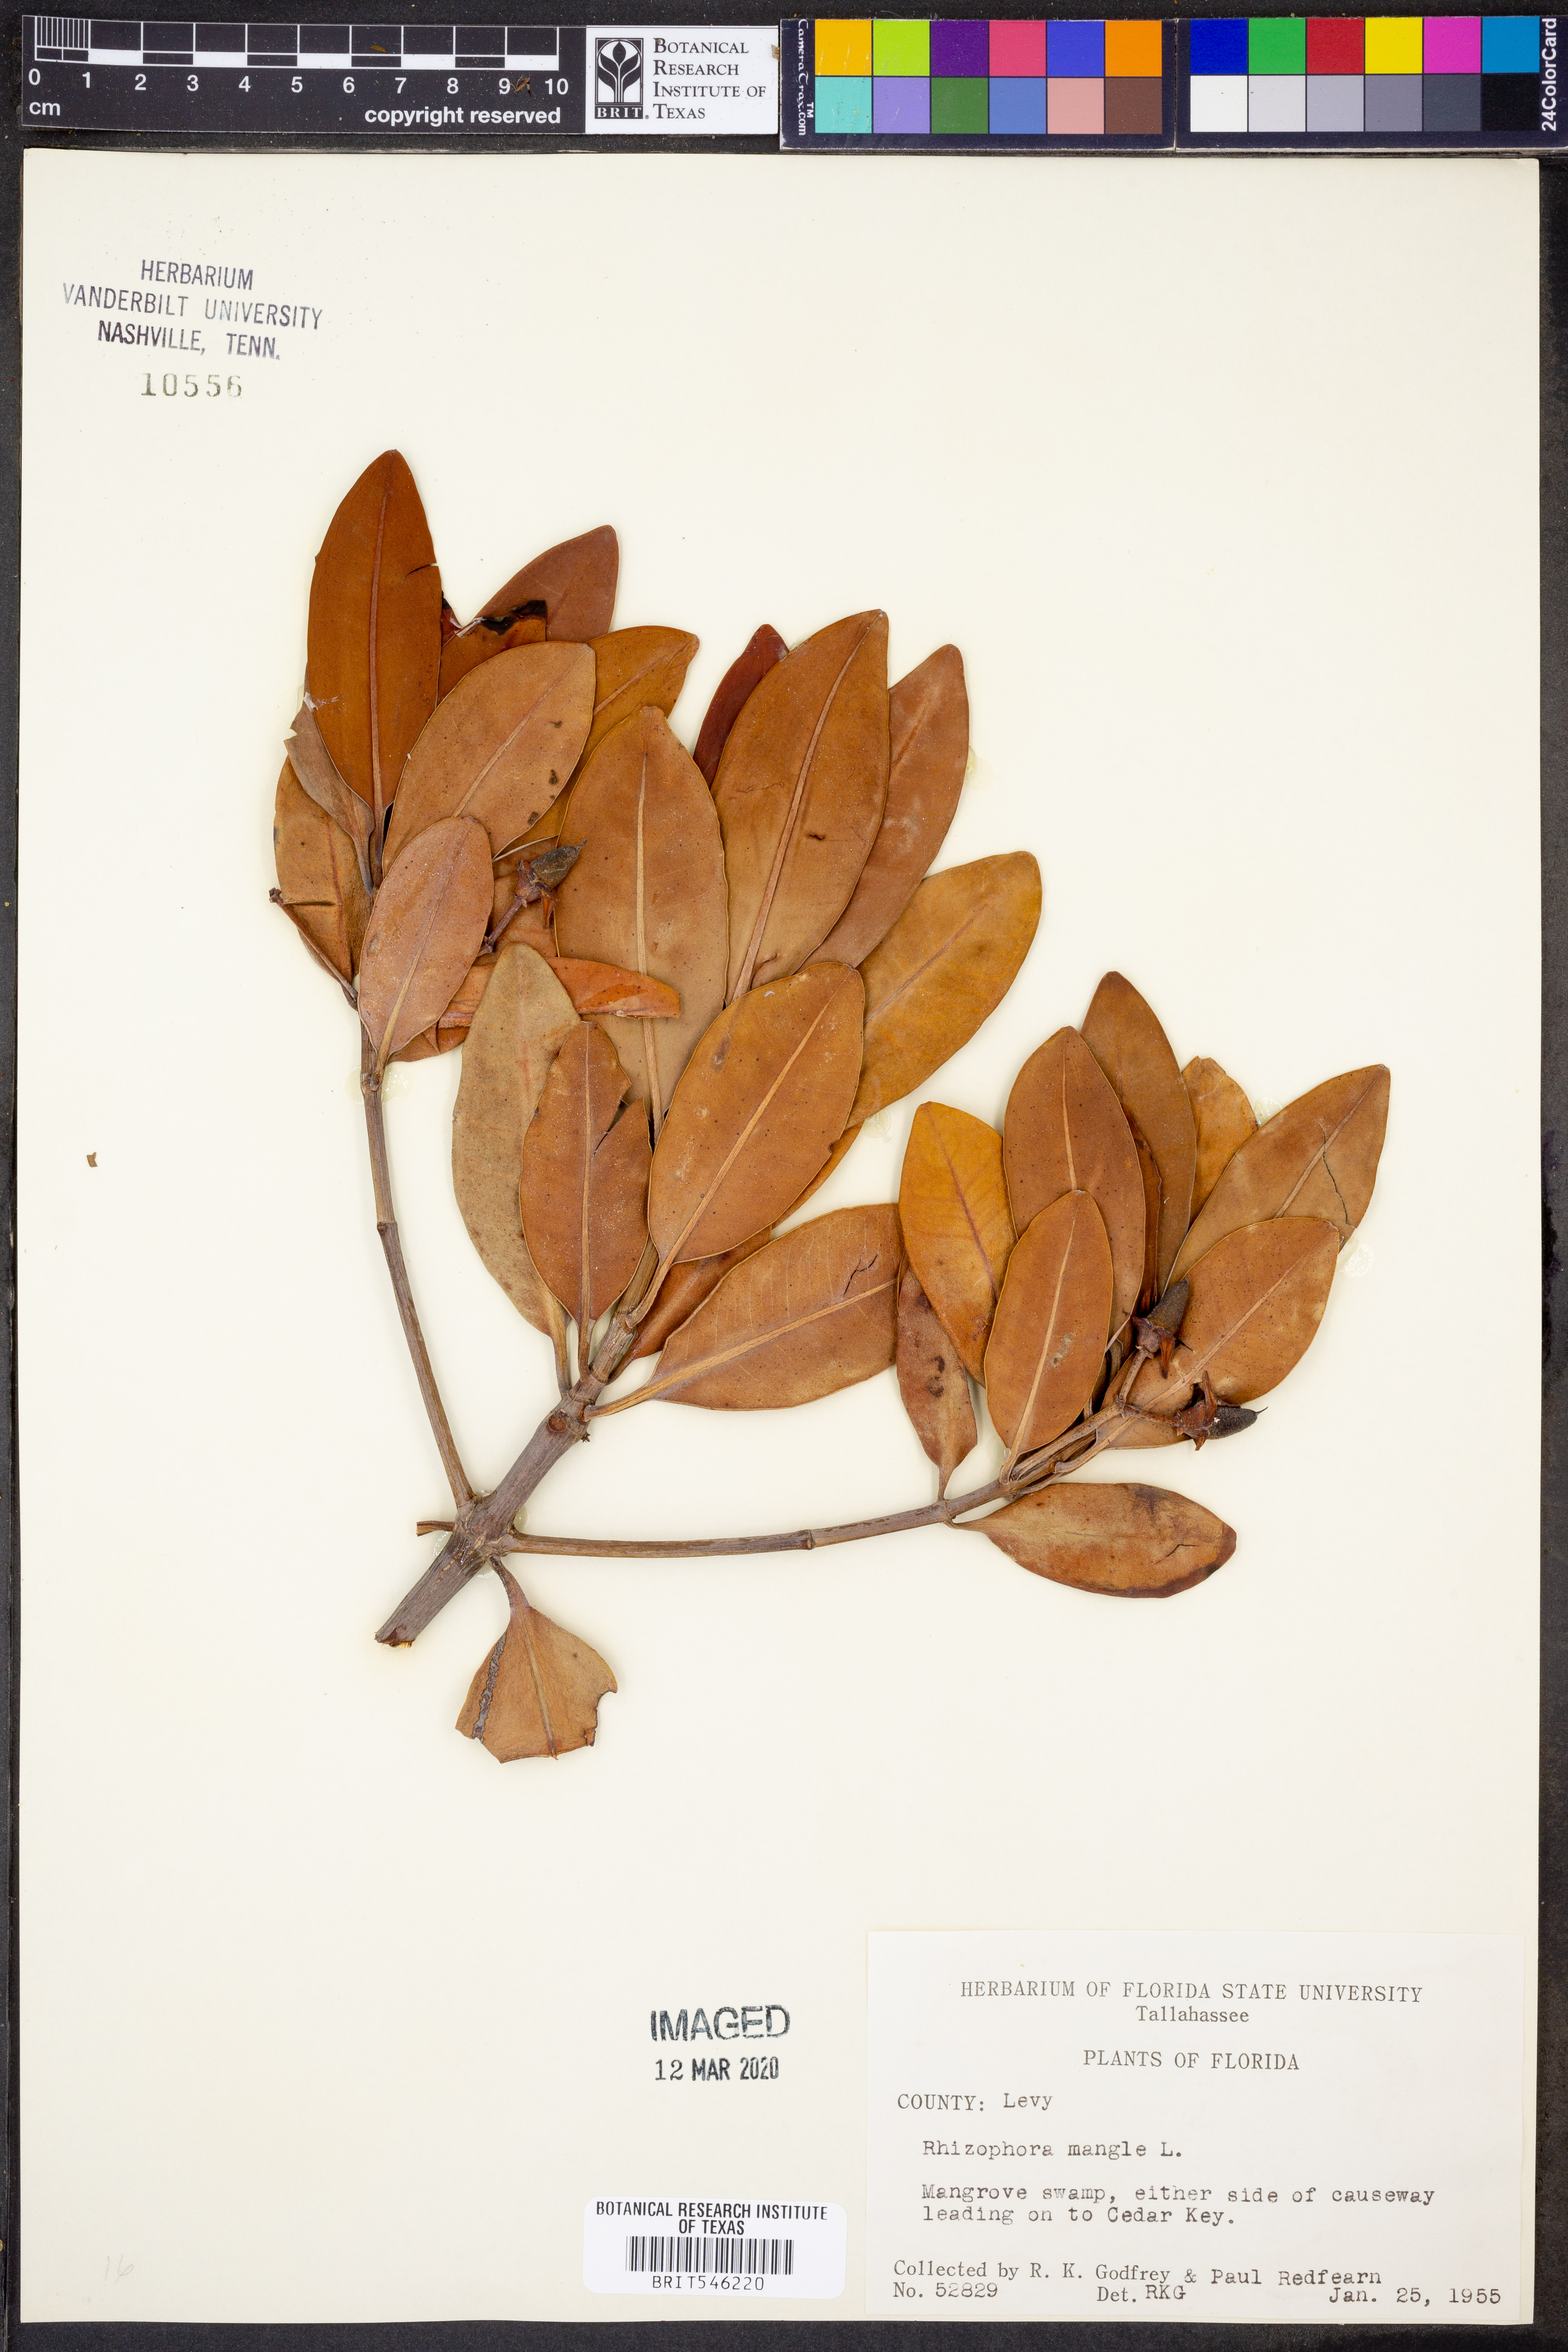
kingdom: Plantae
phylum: Tracheophyta
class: Magnoliopsida
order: Malpighiales
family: Rhizophoraceae
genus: Rhizophora
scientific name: Rhizophora mucronata
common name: Loop-root mangrove
